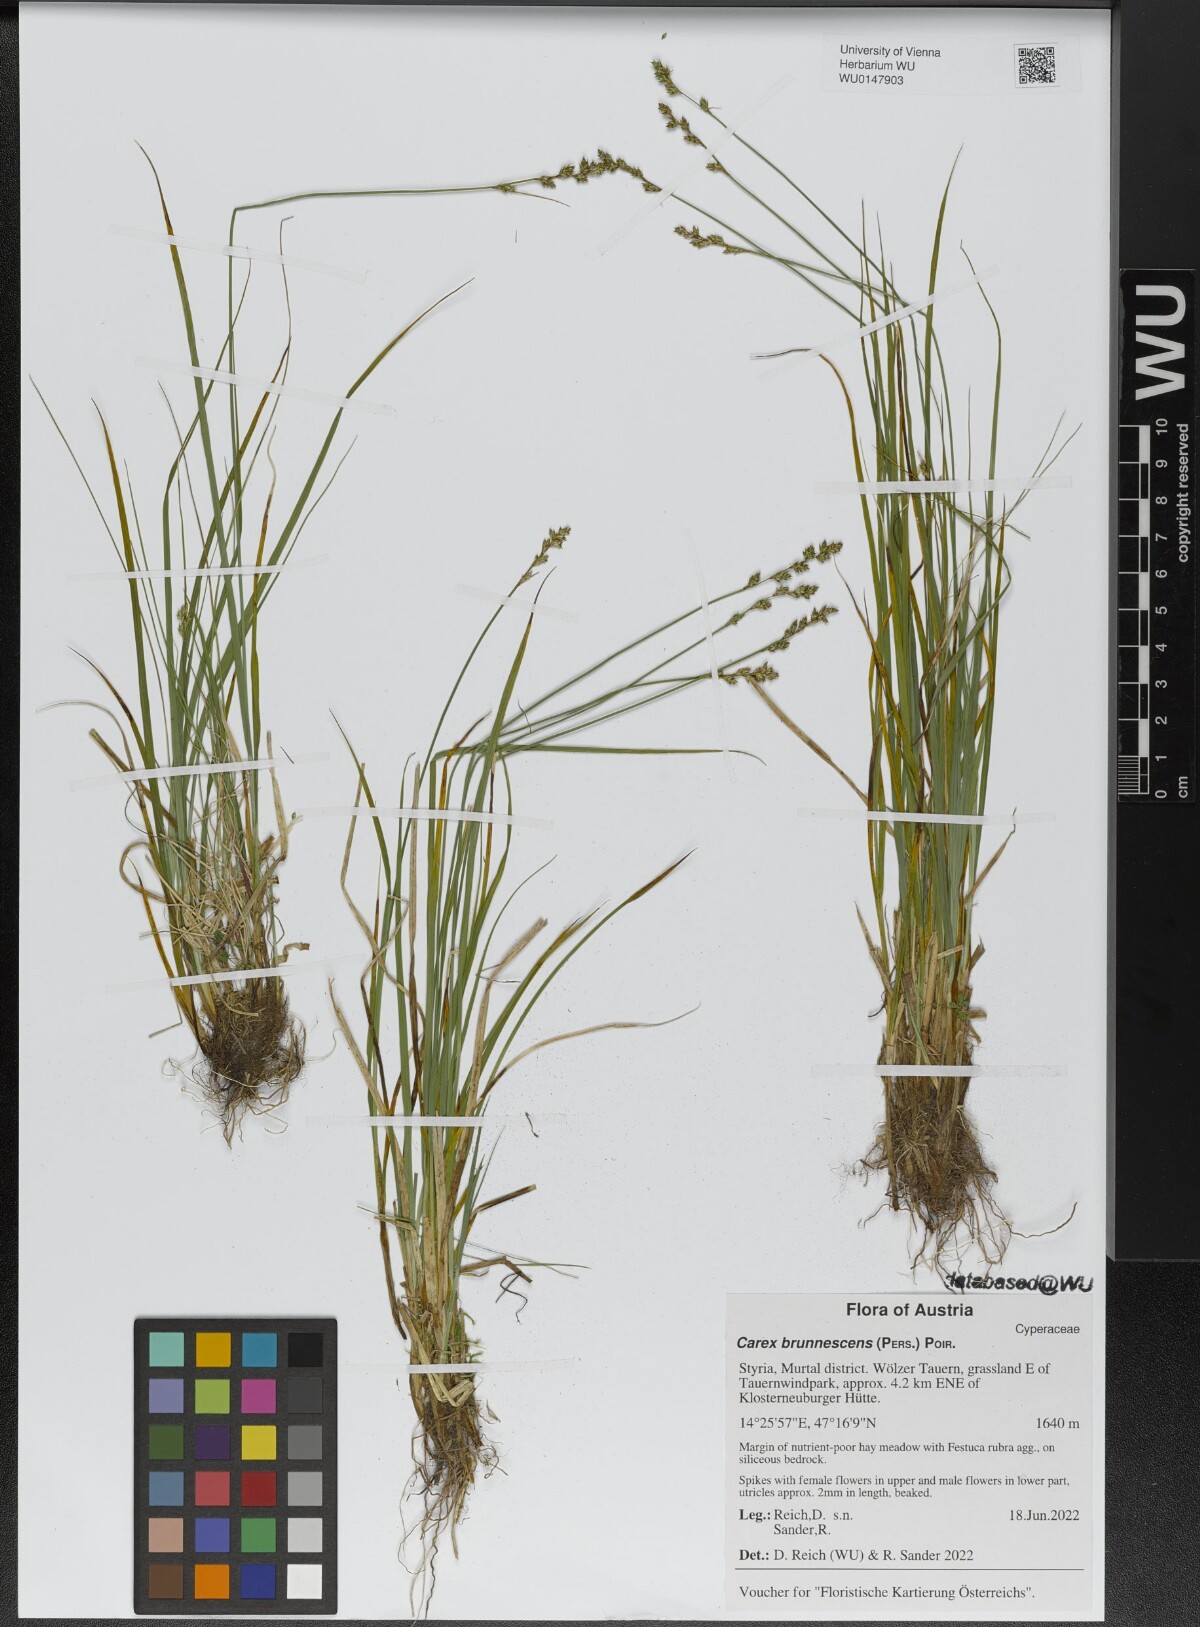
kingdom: Plantae
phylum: Tracheophyta
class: Liliopsida
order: Poales
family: Cyperaceae
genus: Carex
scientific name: Carex brunnescens
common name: Brown sedge
